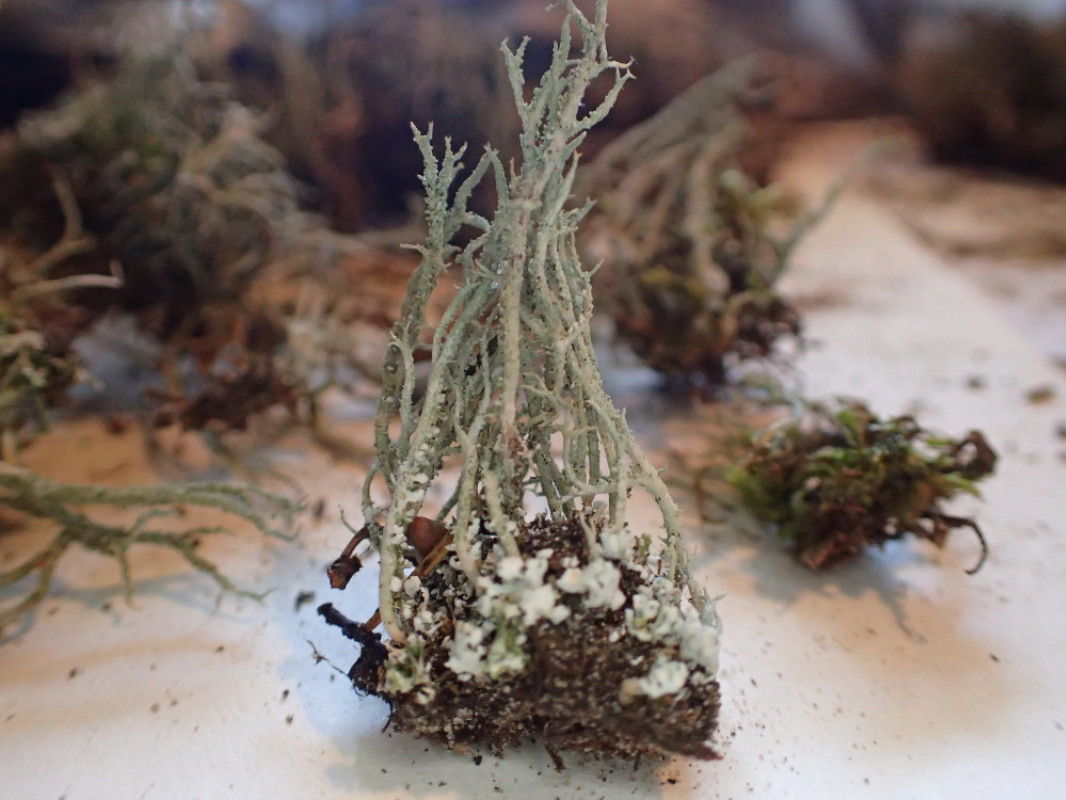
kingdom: Fungi
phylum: Ascomycota
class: Lecanoromycetes
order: Lecanorales
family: Cladoniaceae
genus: Cladonia
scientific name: Cladonia scabriuscula
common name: ru bægerlav
